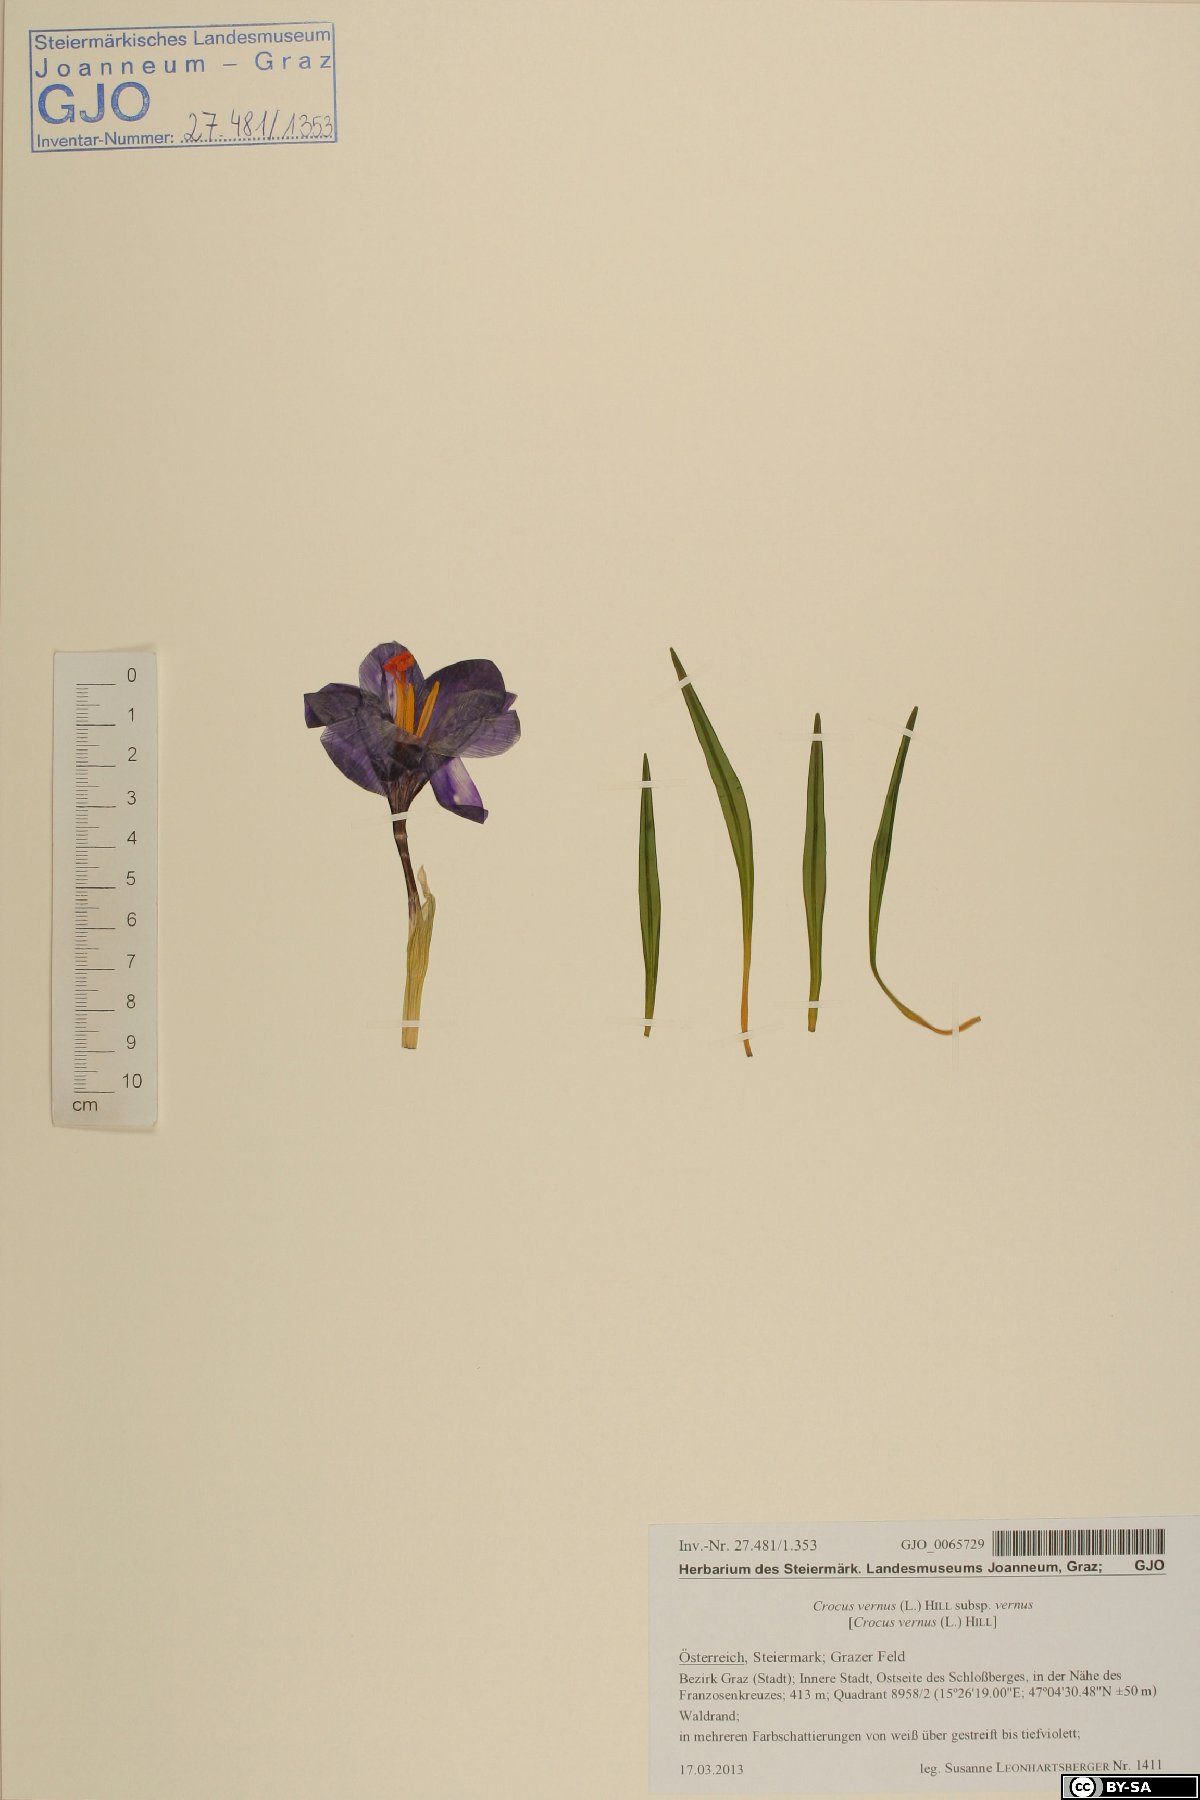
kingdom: Plantae
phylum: Tracheophyta
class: Liliopsida
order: Asparagales
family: Iridaceae
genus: Crocus
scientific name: Crocus vernus
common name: Spring crocus
